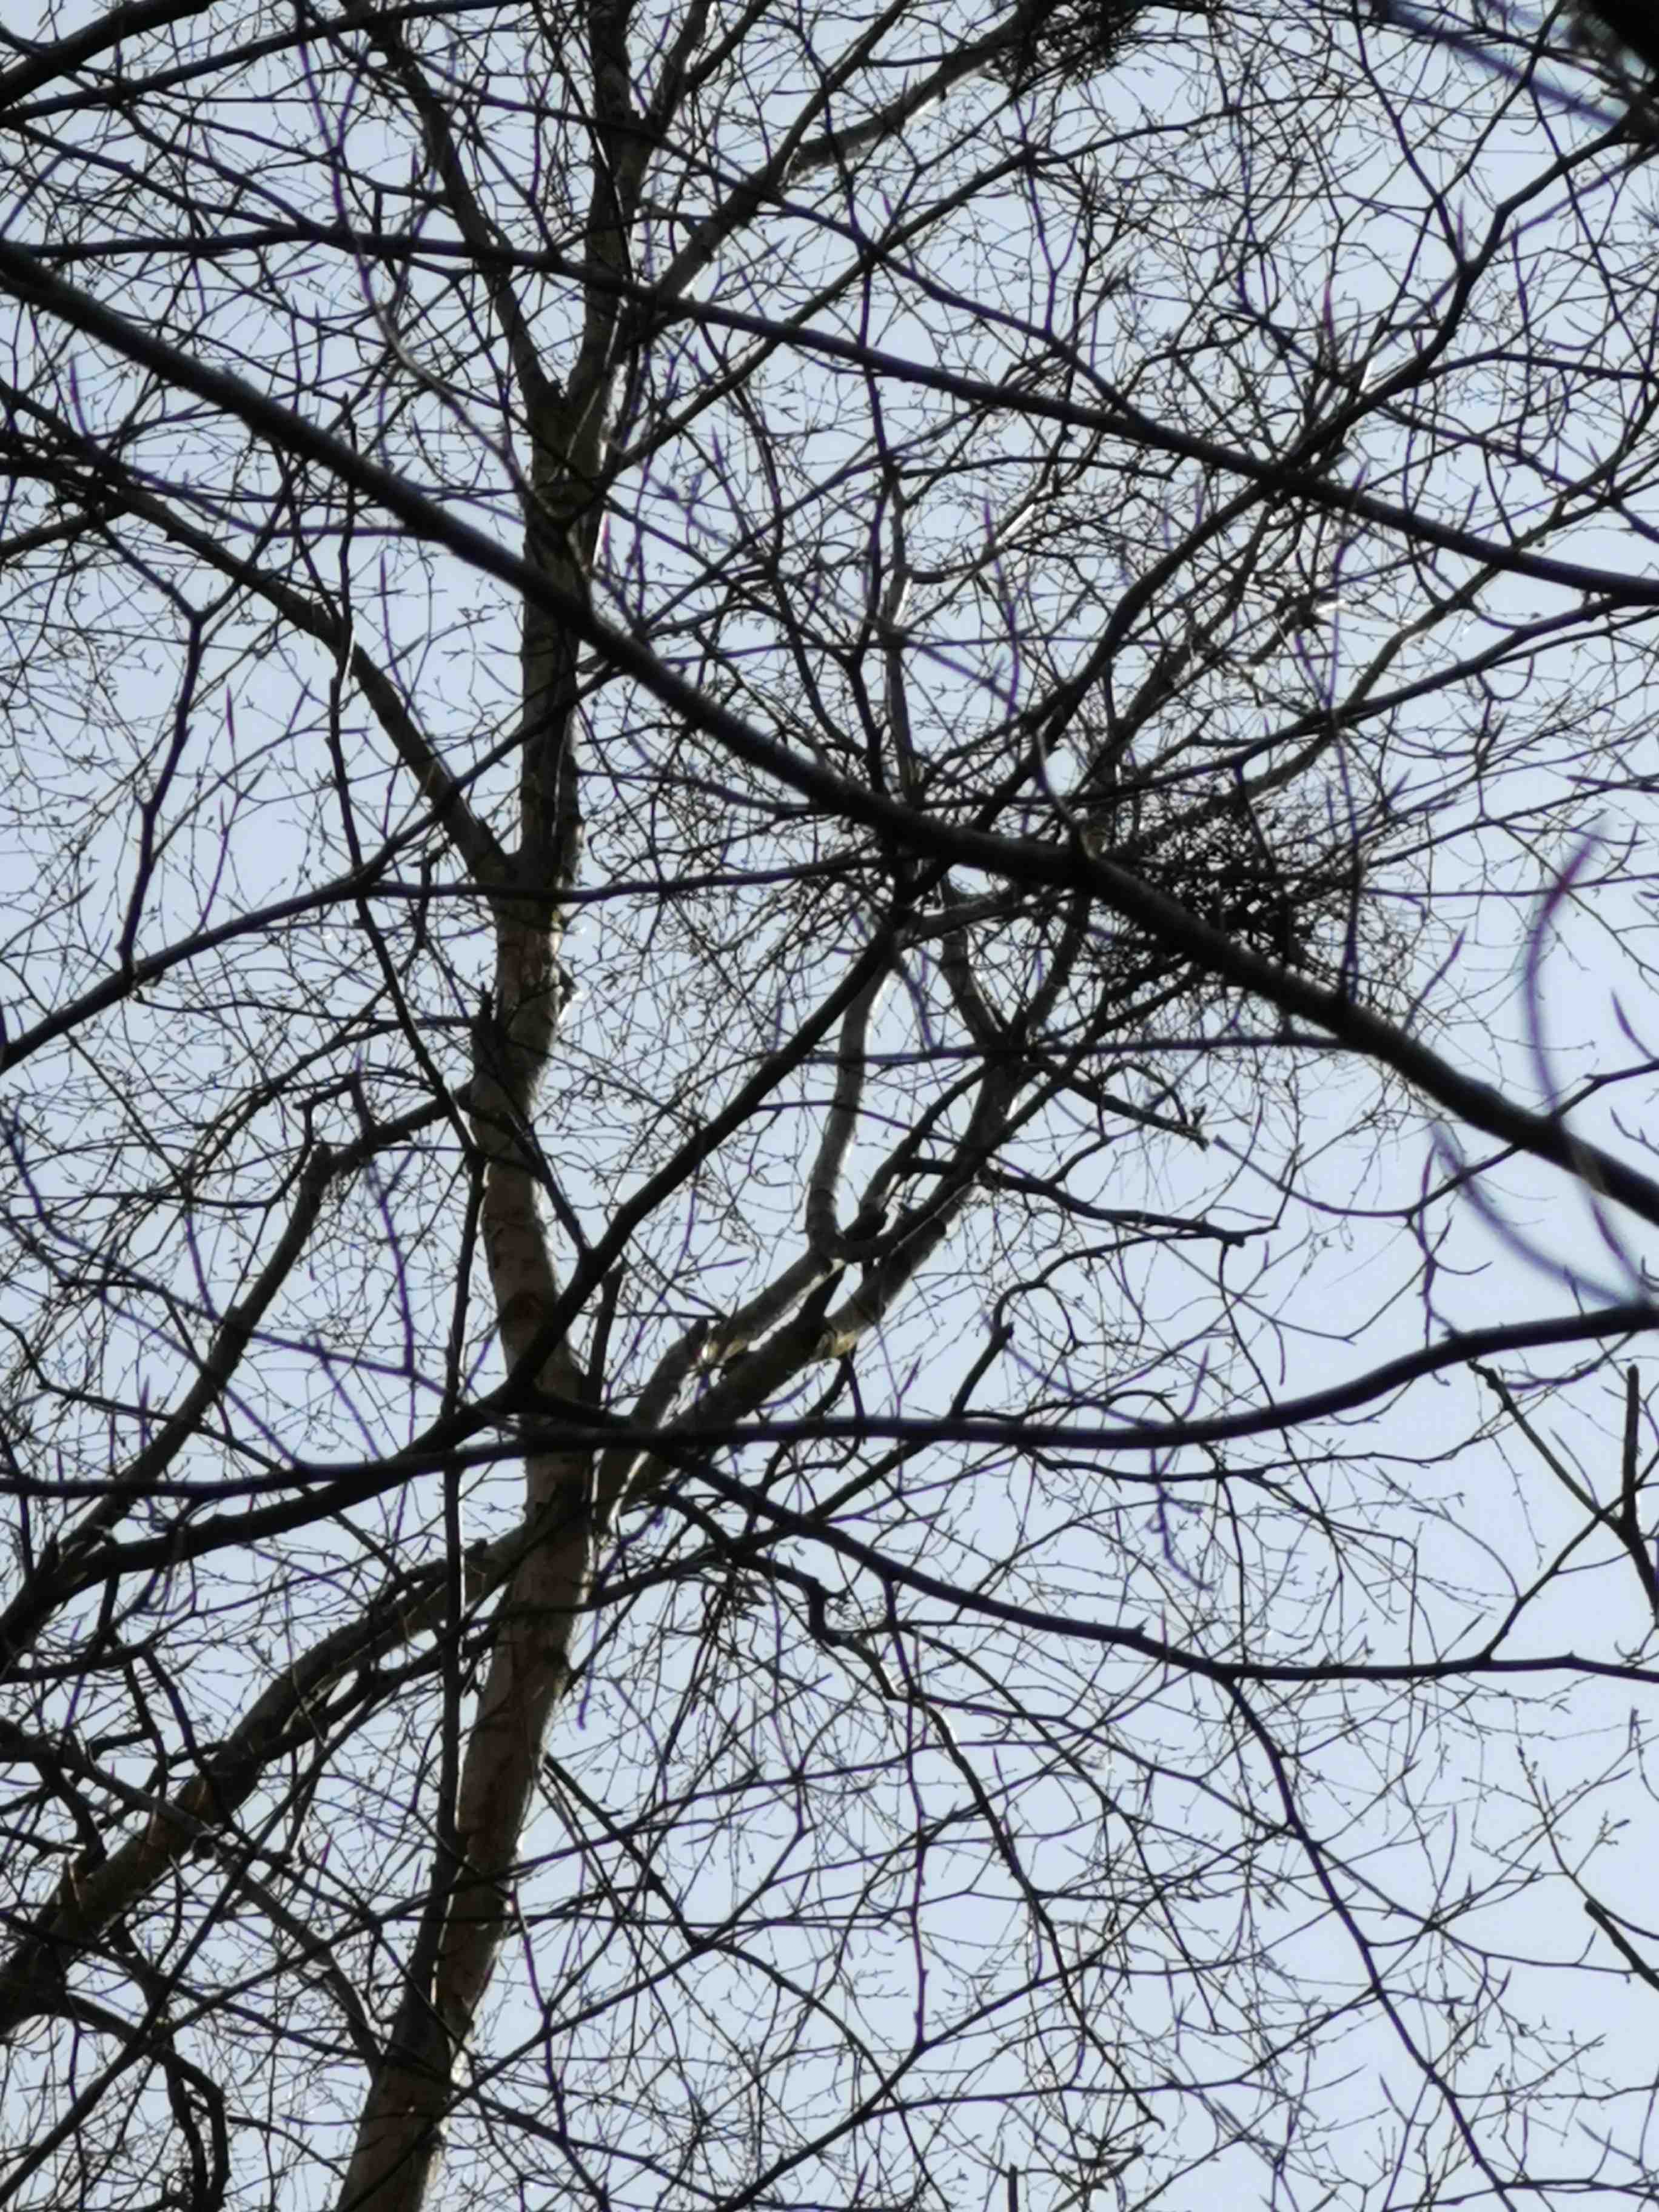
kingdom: Fungi
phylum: Ascomycota
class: Taphrinomycetes
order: Taphrinales
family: Taphrinaceae
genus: Taphrina
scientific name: Taphrina betulina
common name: hekse-sækdug
